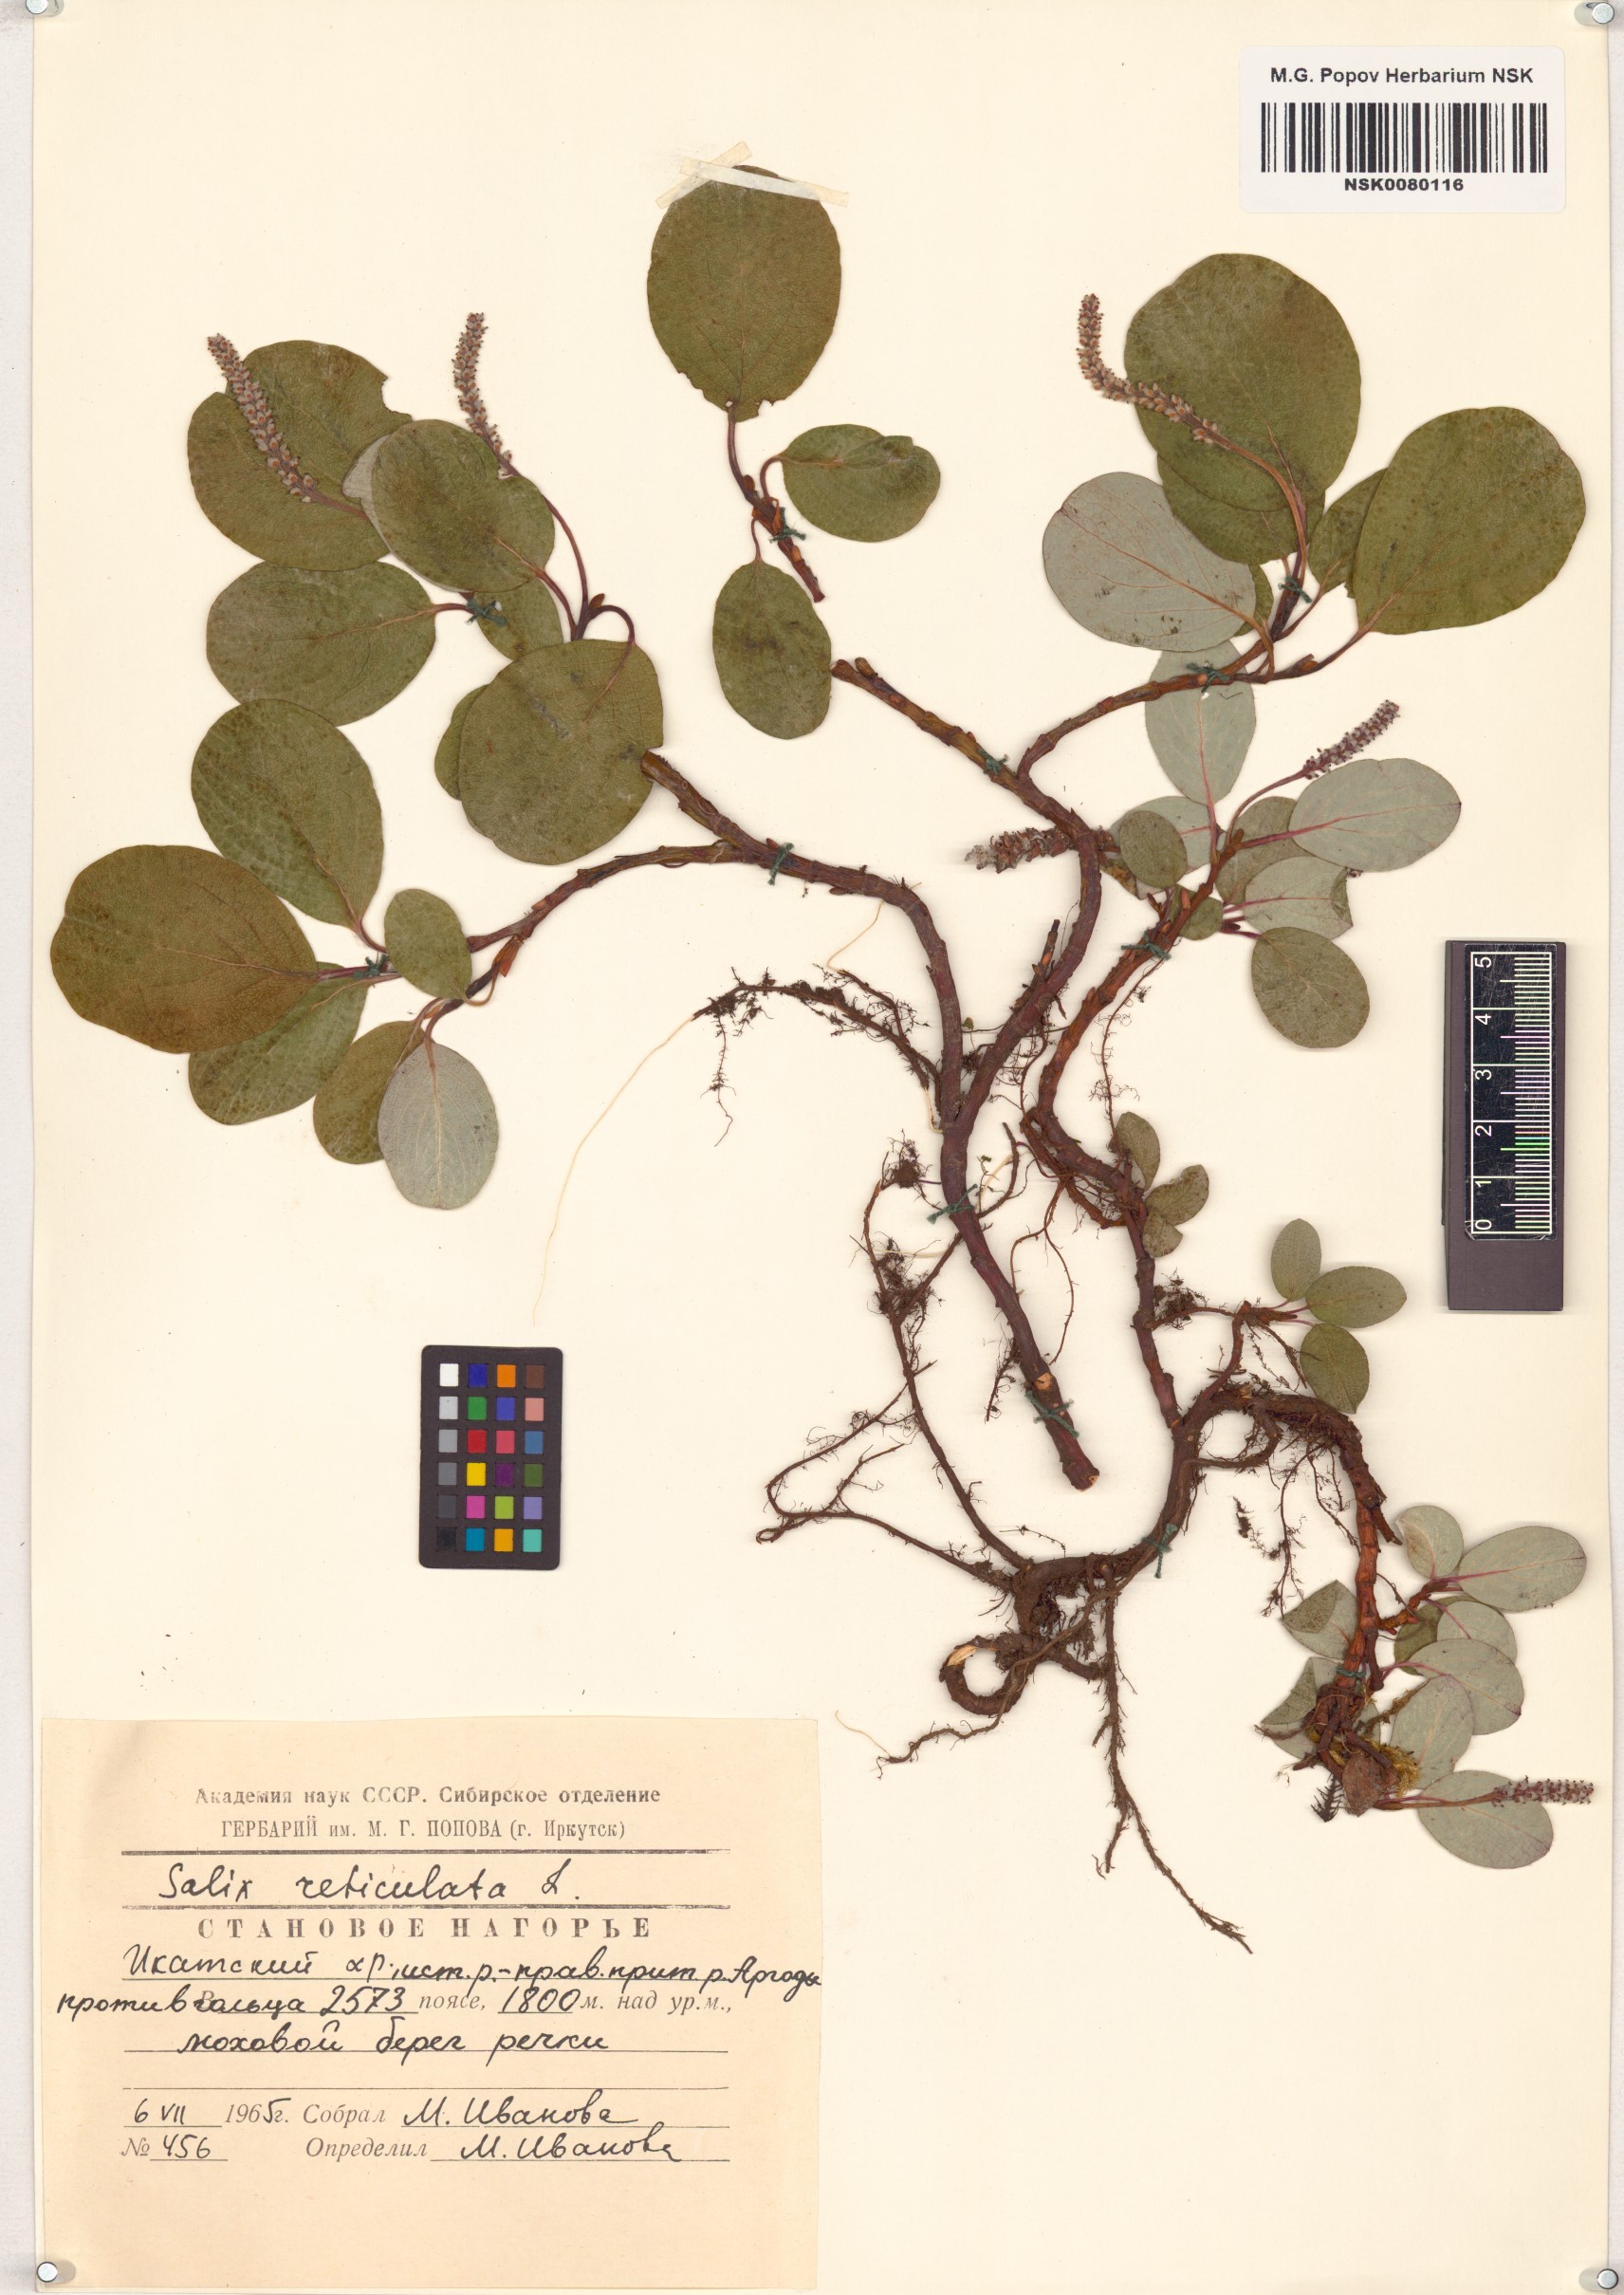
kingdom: Plantae
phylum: Tracheophyta
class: Magnoliopsida
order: Malpighiales
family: Salicaceae
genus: Salix
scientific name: Salix reticulata
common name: Net-leaved willow
